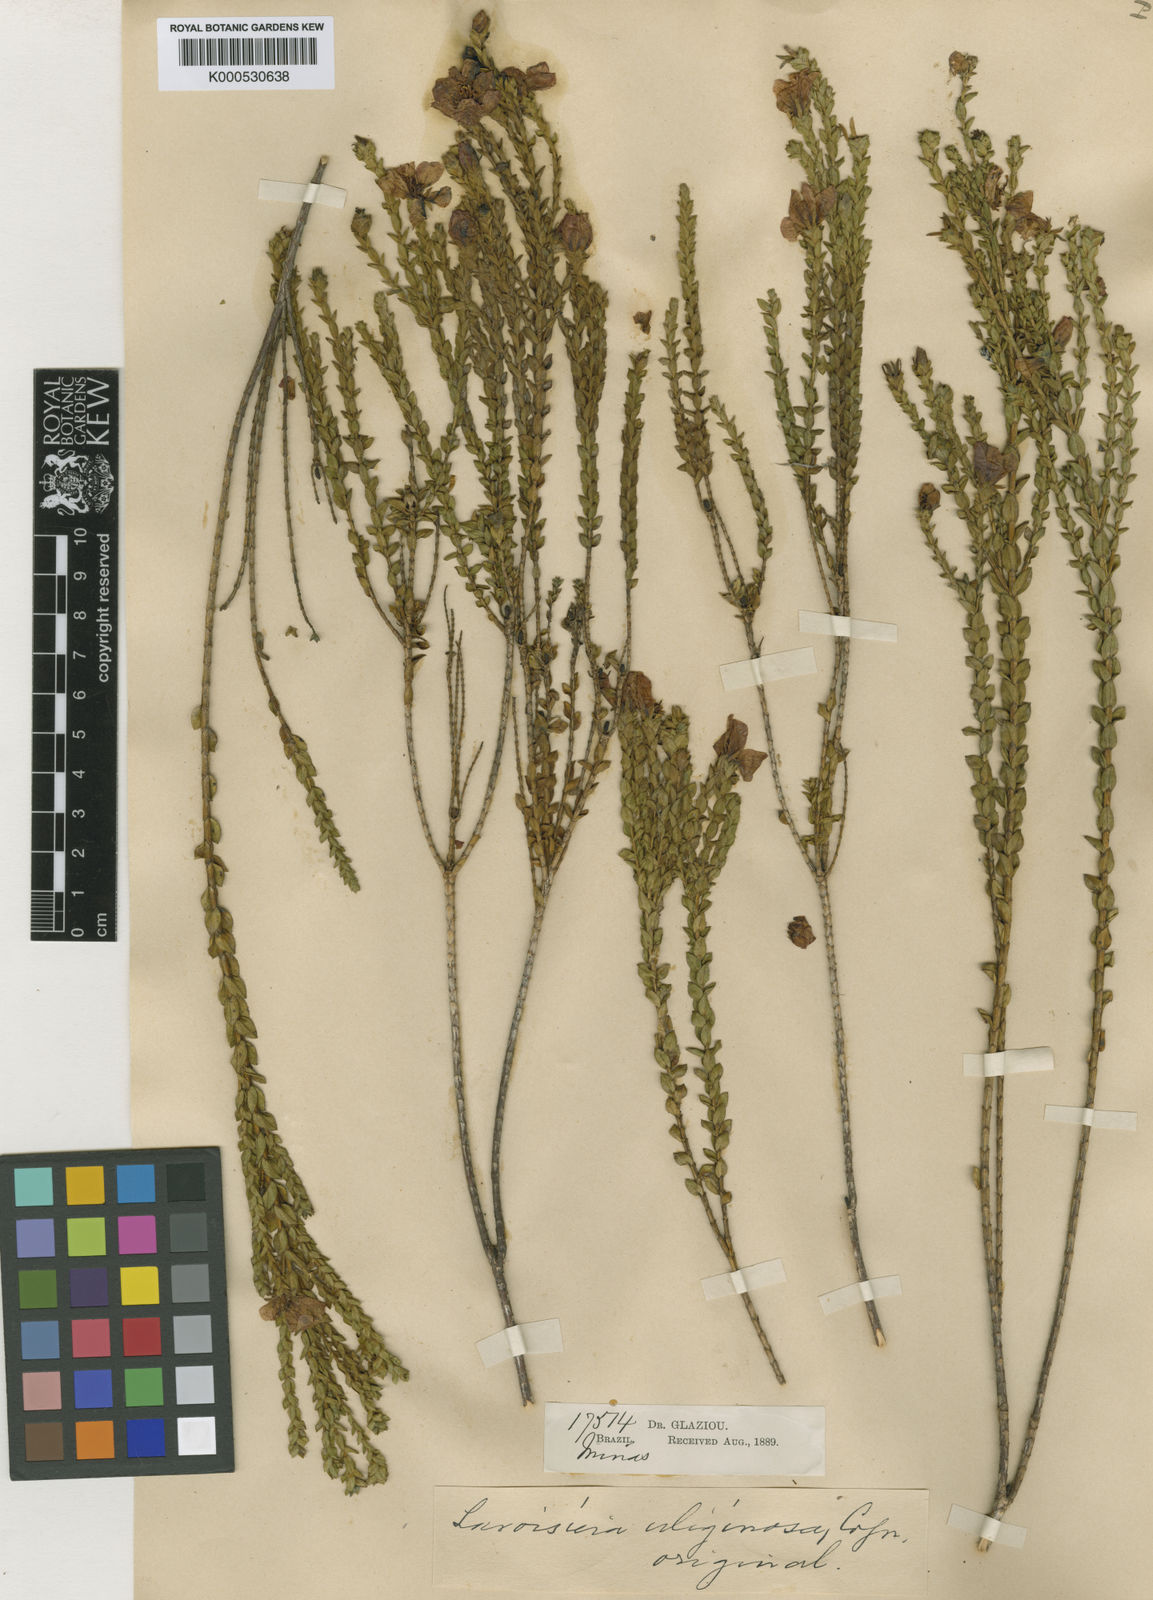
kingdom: Plantae
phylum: Tracheophyta
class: Magnoliopsida
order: Myrtales
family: Melastomataceae
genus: Microlicia
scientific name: Microlicia mucorifera
